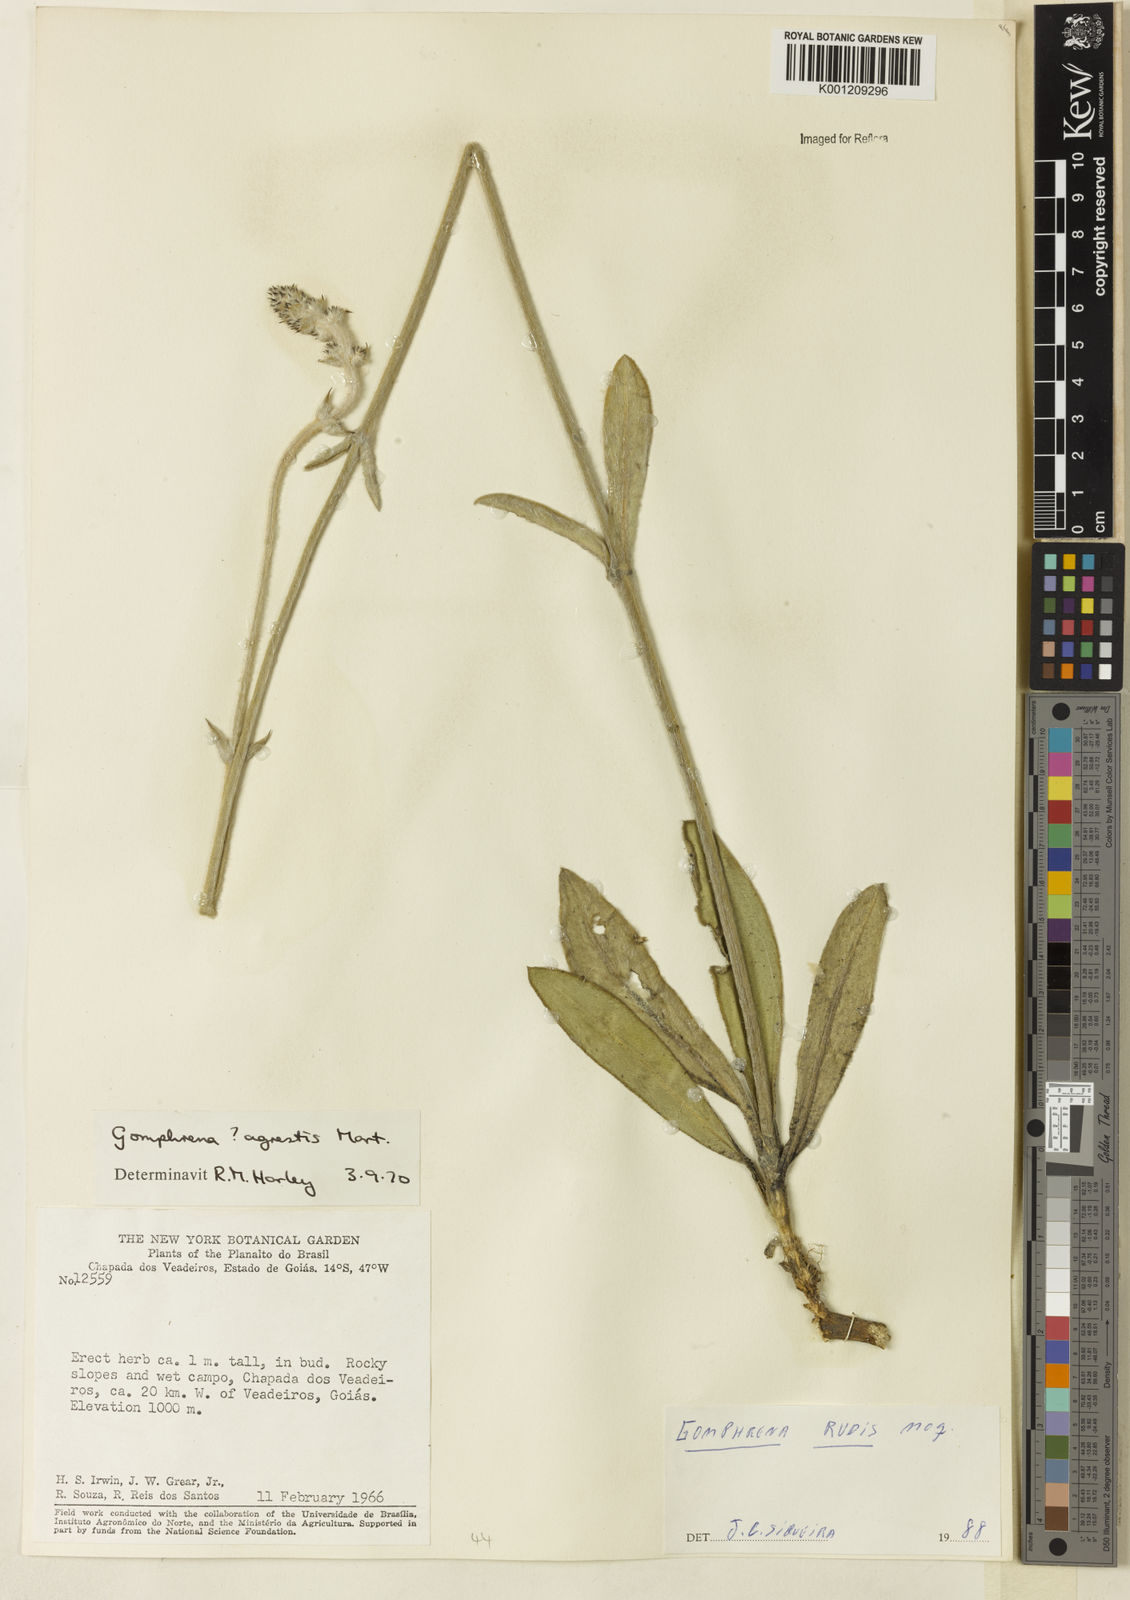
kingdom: Plantae
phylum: Tracheophyta
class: Magnoliopsida
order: Caryophyllales
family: Amaranthaceae
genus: Gomphrena
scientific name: Gomphrena rudis
